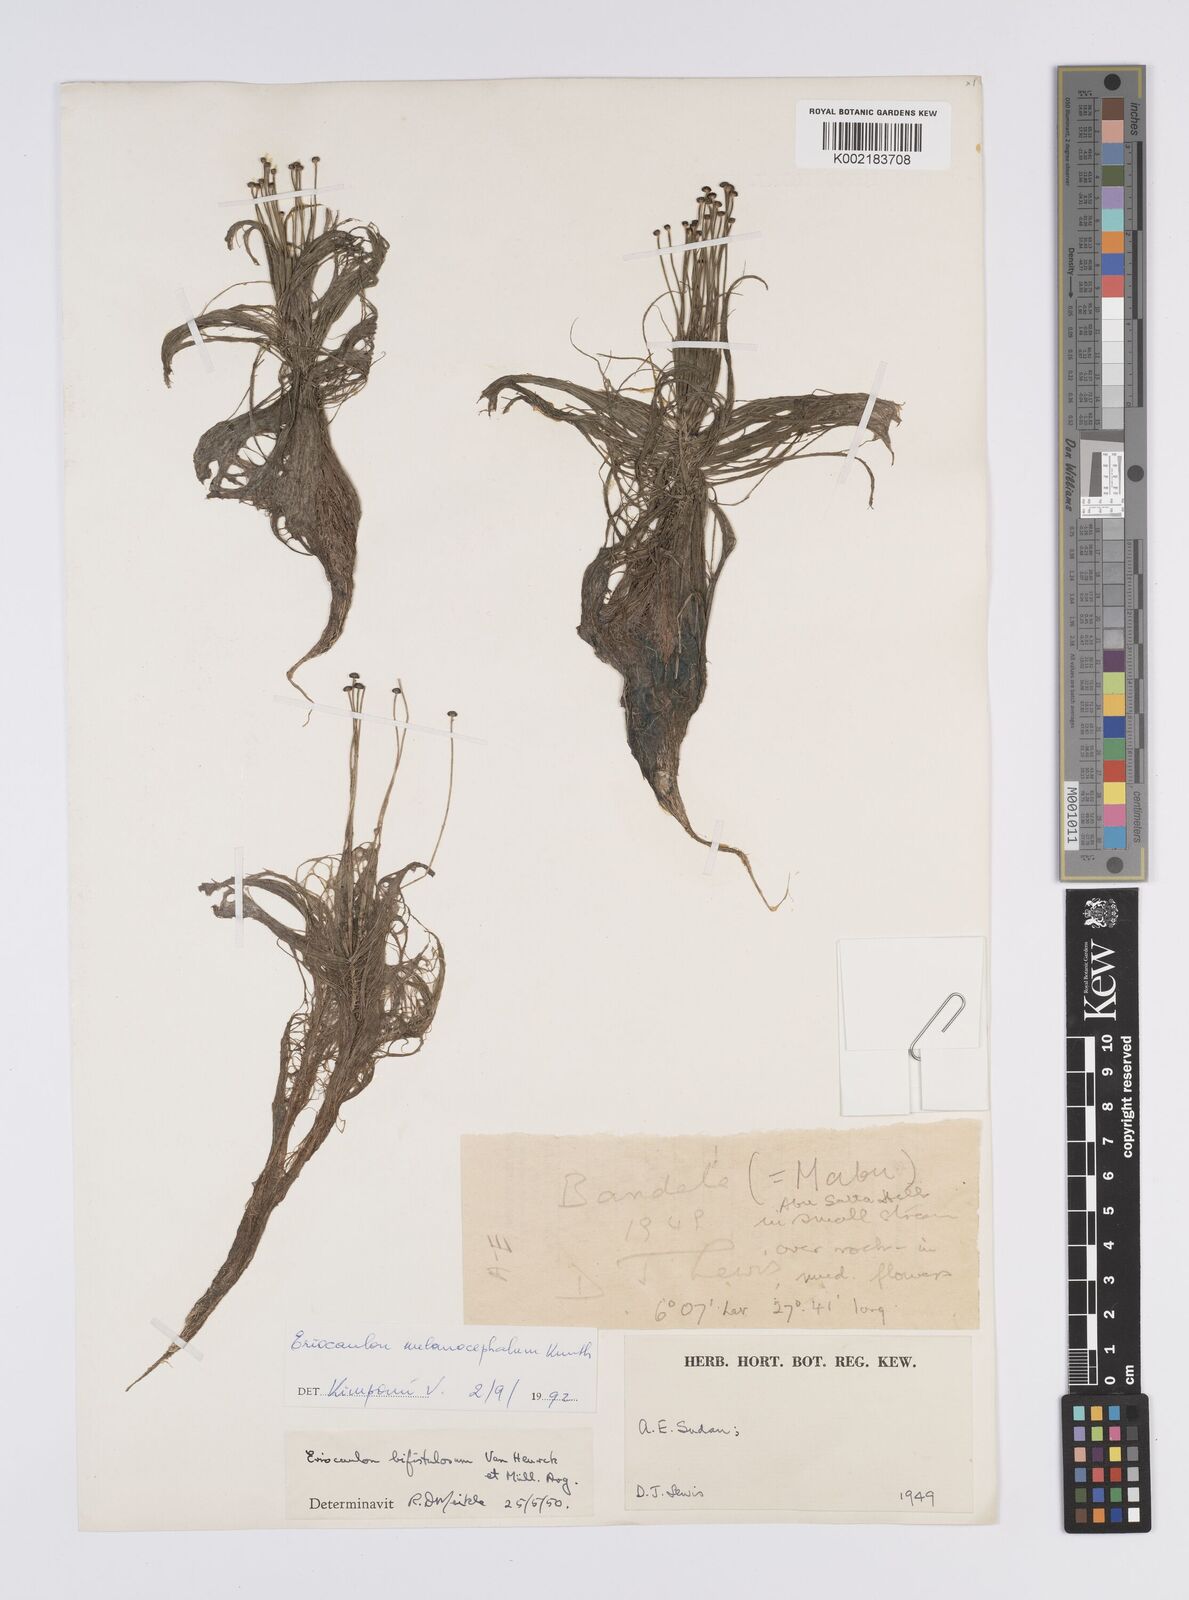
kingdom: Plantae
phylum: Tracheophyta
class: Liliopsida
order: Poales
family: Eriocaulaceae
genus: Eriocaulon
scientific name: Eriocaulon
